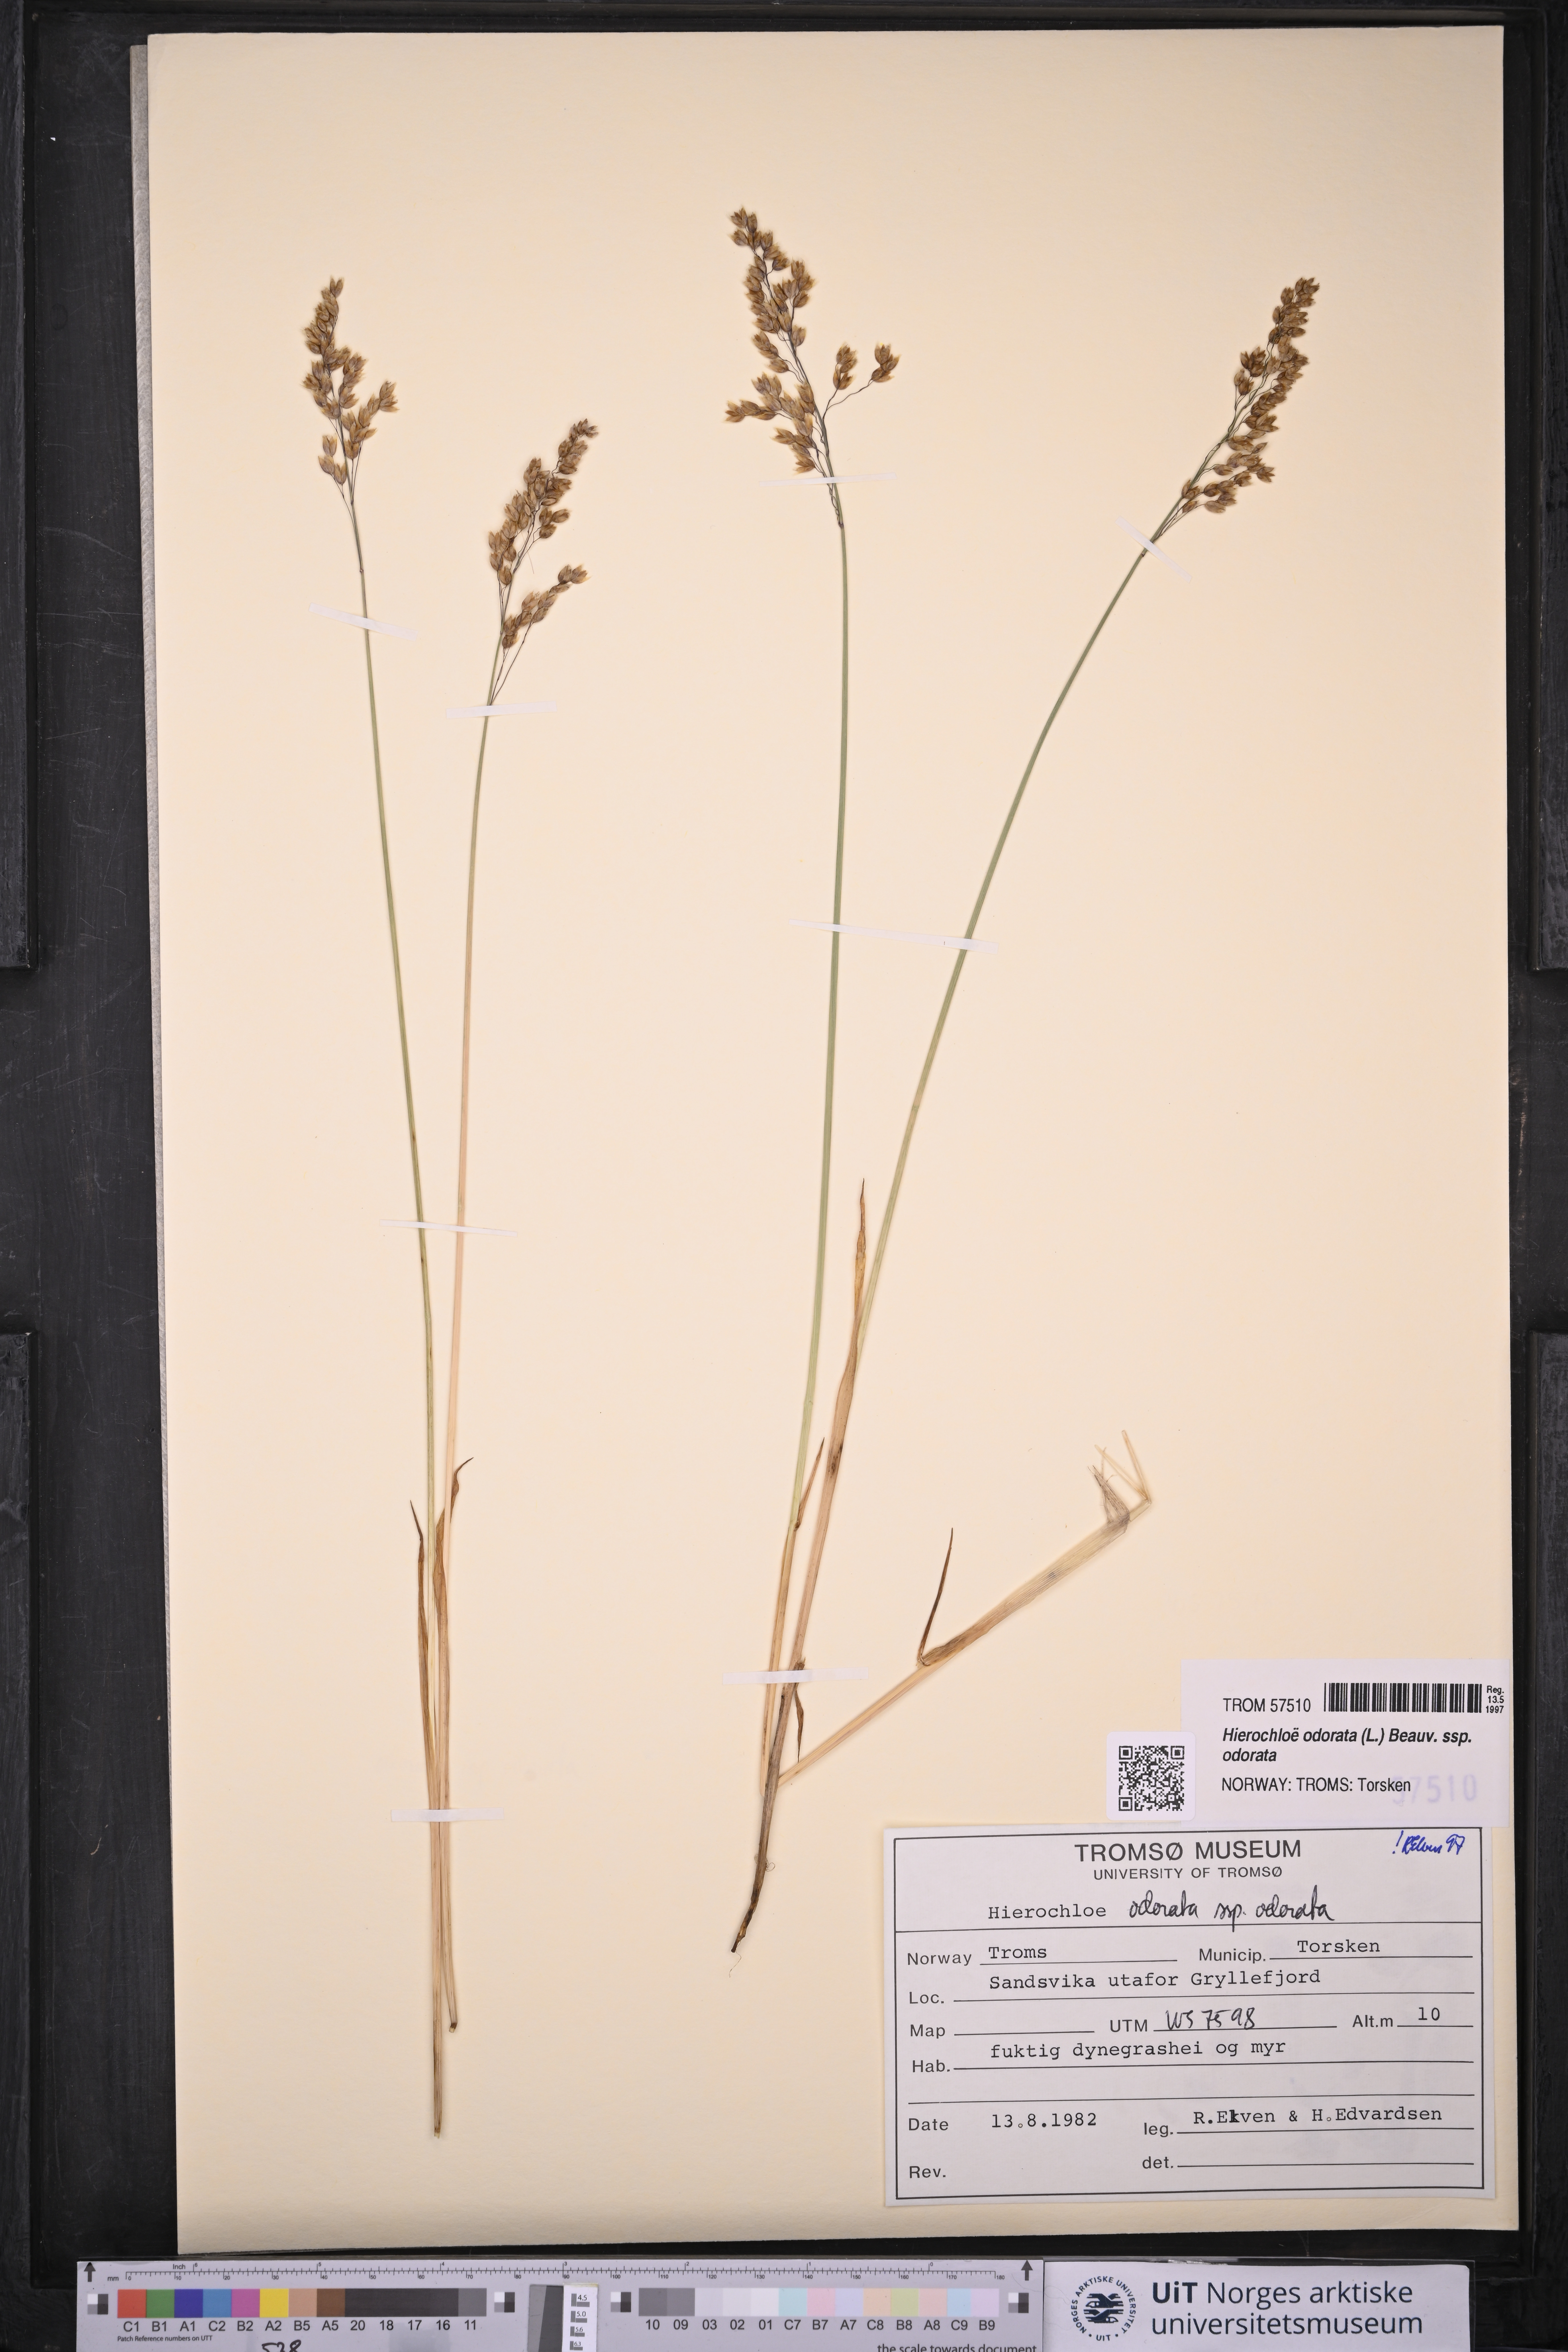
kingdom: Plantae
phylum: Tracheophyta
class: Liliopsida
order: Poales
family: Poaceae
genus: Anthoxanthum
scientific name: Anthoxanthum nitens
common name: Holy grass
